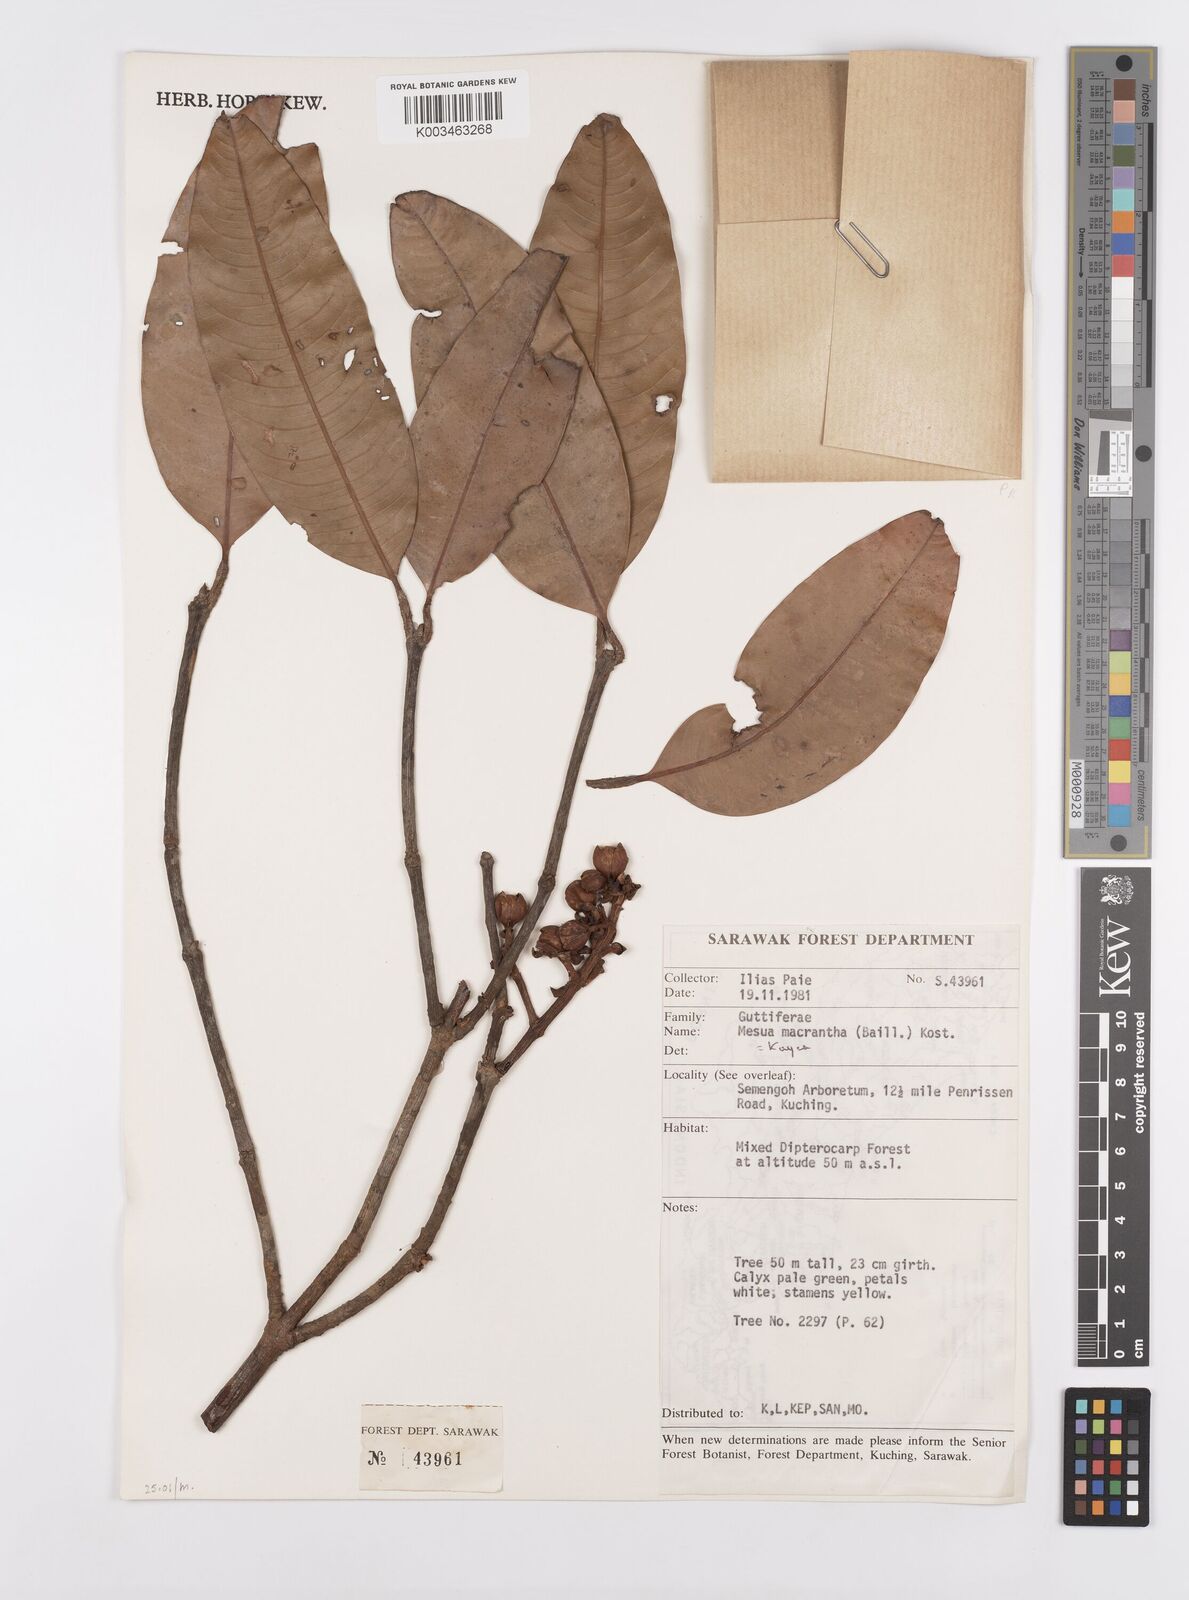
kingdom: Plantae
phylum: Tracheophyta
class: Magnoliopsida
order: Malpighiales
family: Calophyllaceae
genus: Kayea
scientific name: Kayea macrantha
